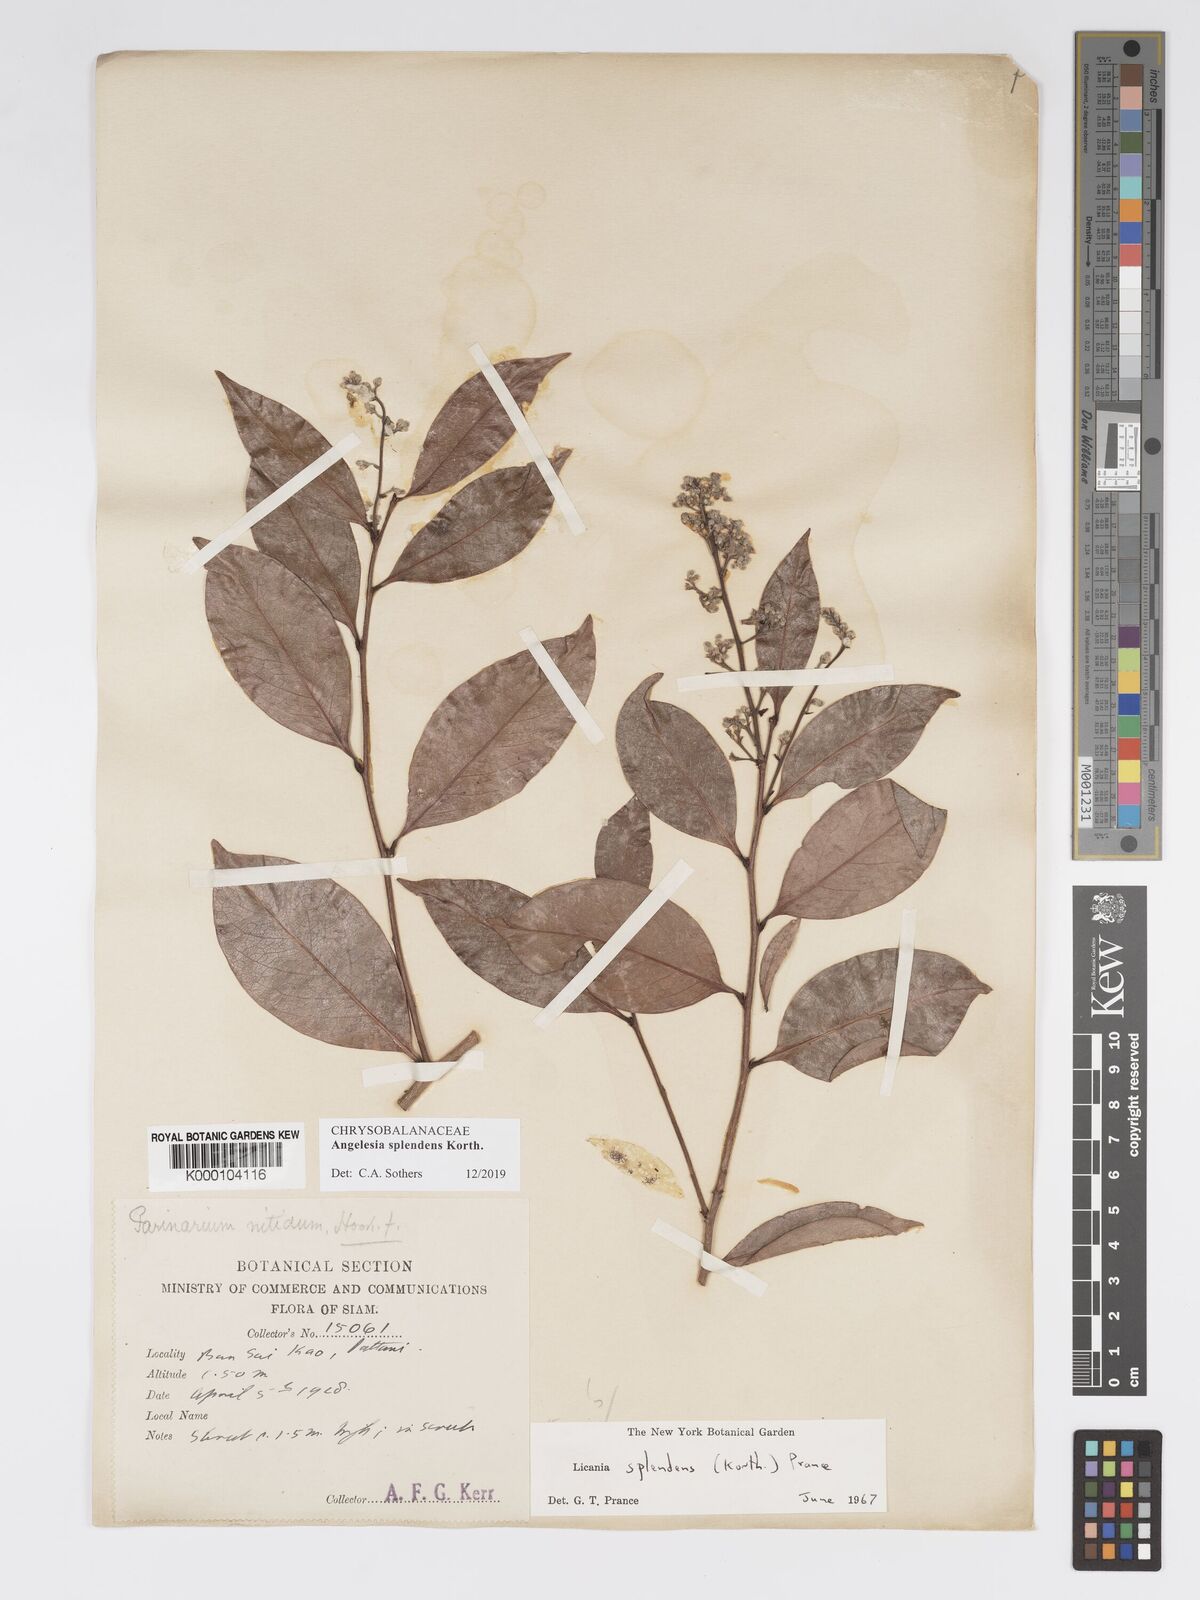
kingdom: Plantae
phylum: Tracheophyta
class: Magnoliopsida
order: Malpighiales
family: Chrysobalanaceae
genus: Angelesia
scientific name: Angelesia splendens
